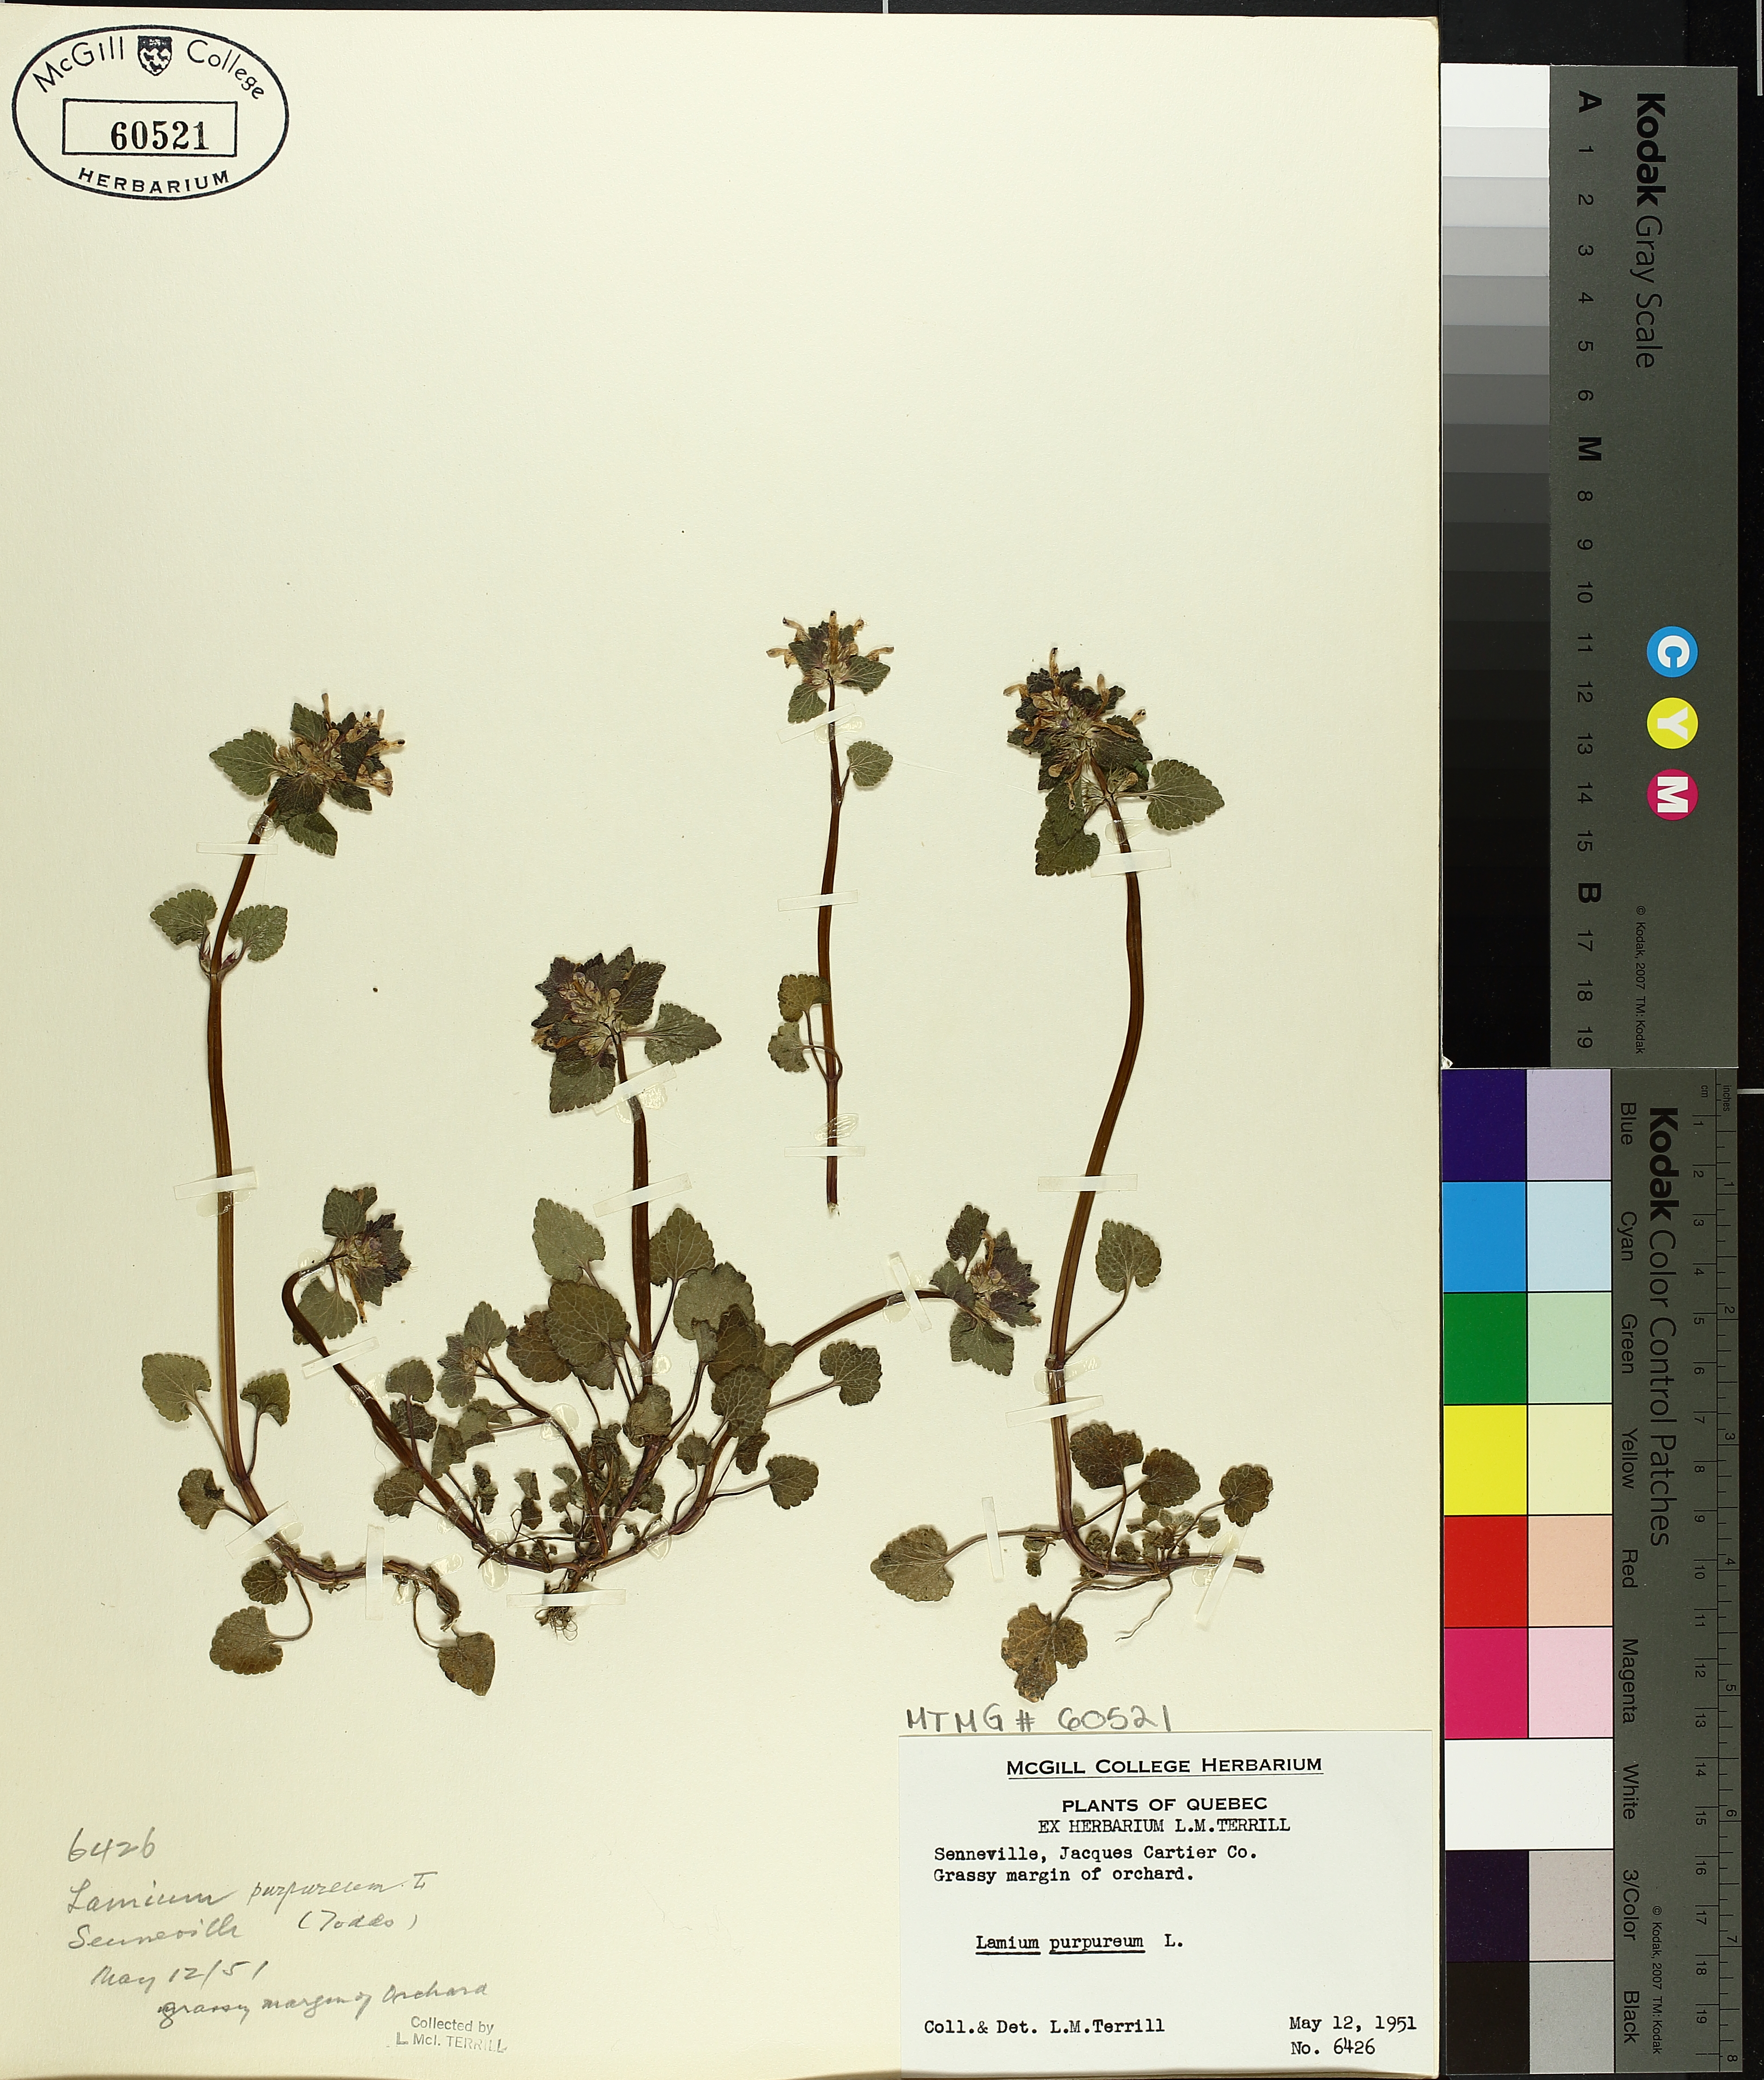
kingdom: Plantae
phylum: Tracheophyta
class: Magnoliopsida
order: Lamiales
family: Lamiaceae
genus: Lamium
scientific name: Lamium purpureum
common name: Red dead-nettle
